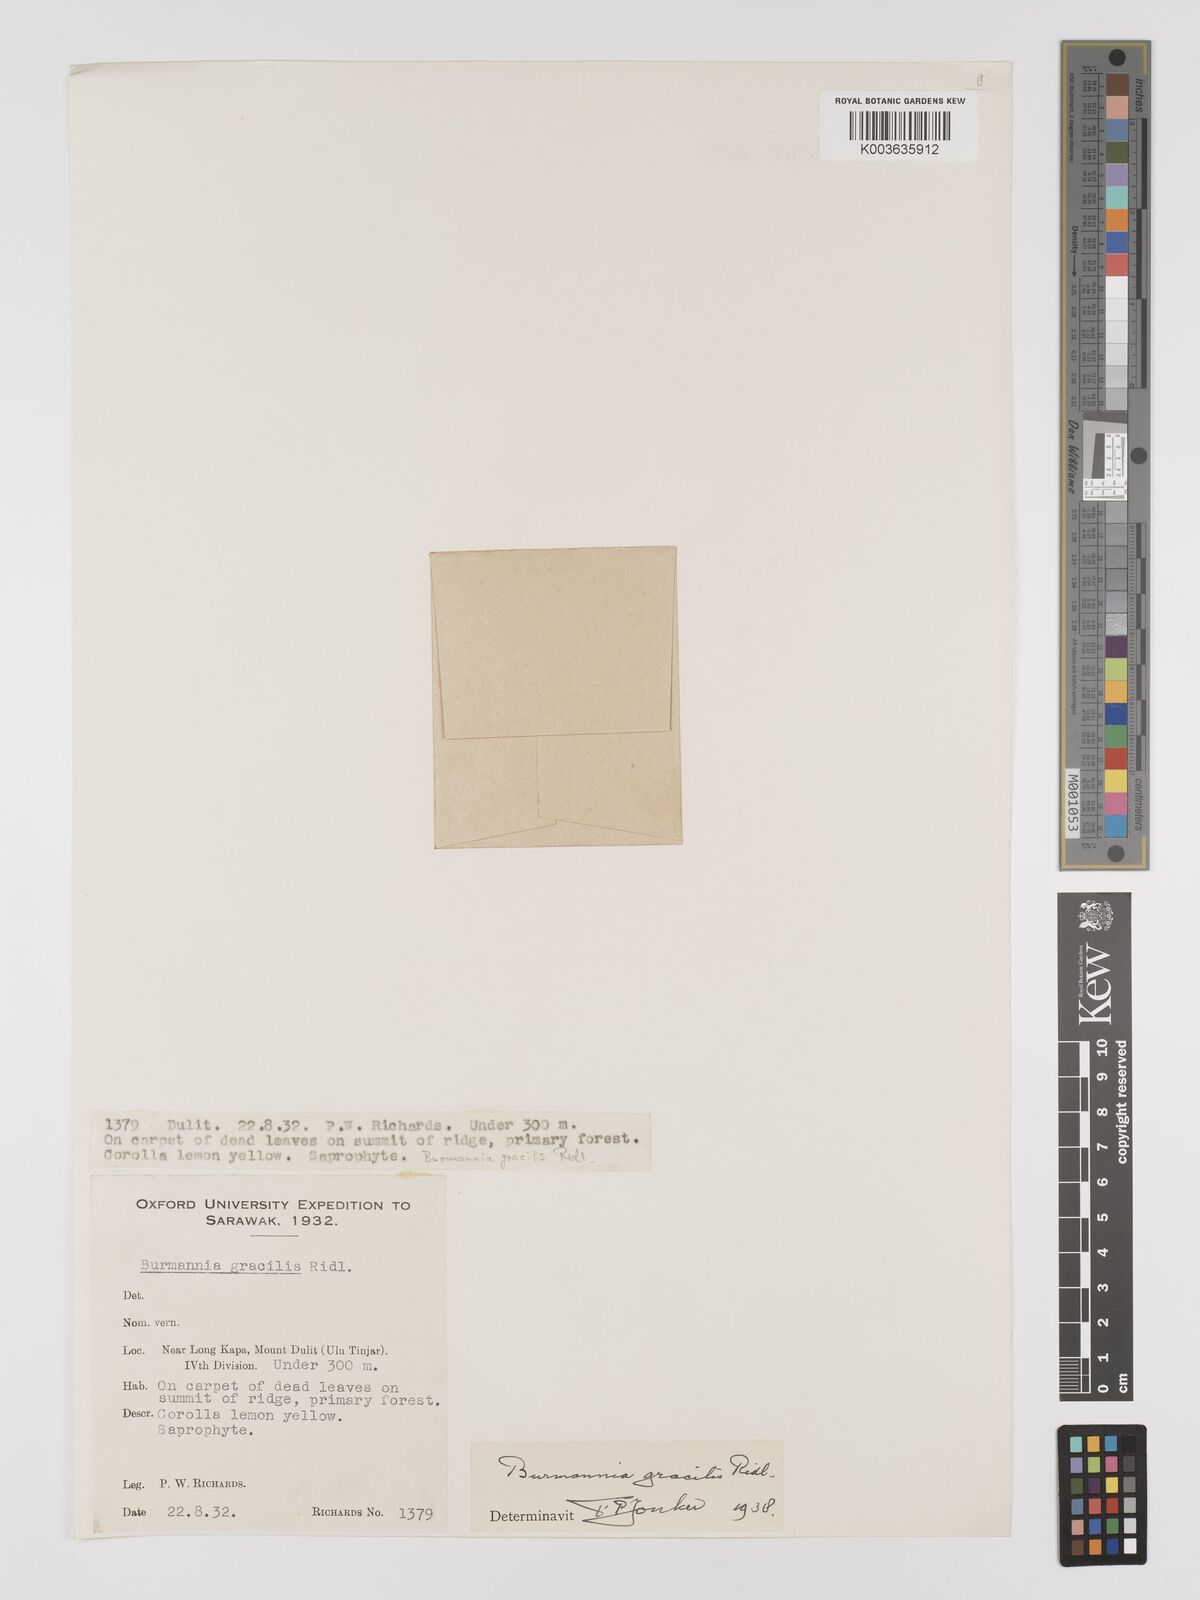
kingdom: Plantae
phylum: Tracheophyta
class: Liliopsida
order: Dioscoreales
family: Burmanniaceae
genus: Burmannia
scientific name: Burmannia lutescens
